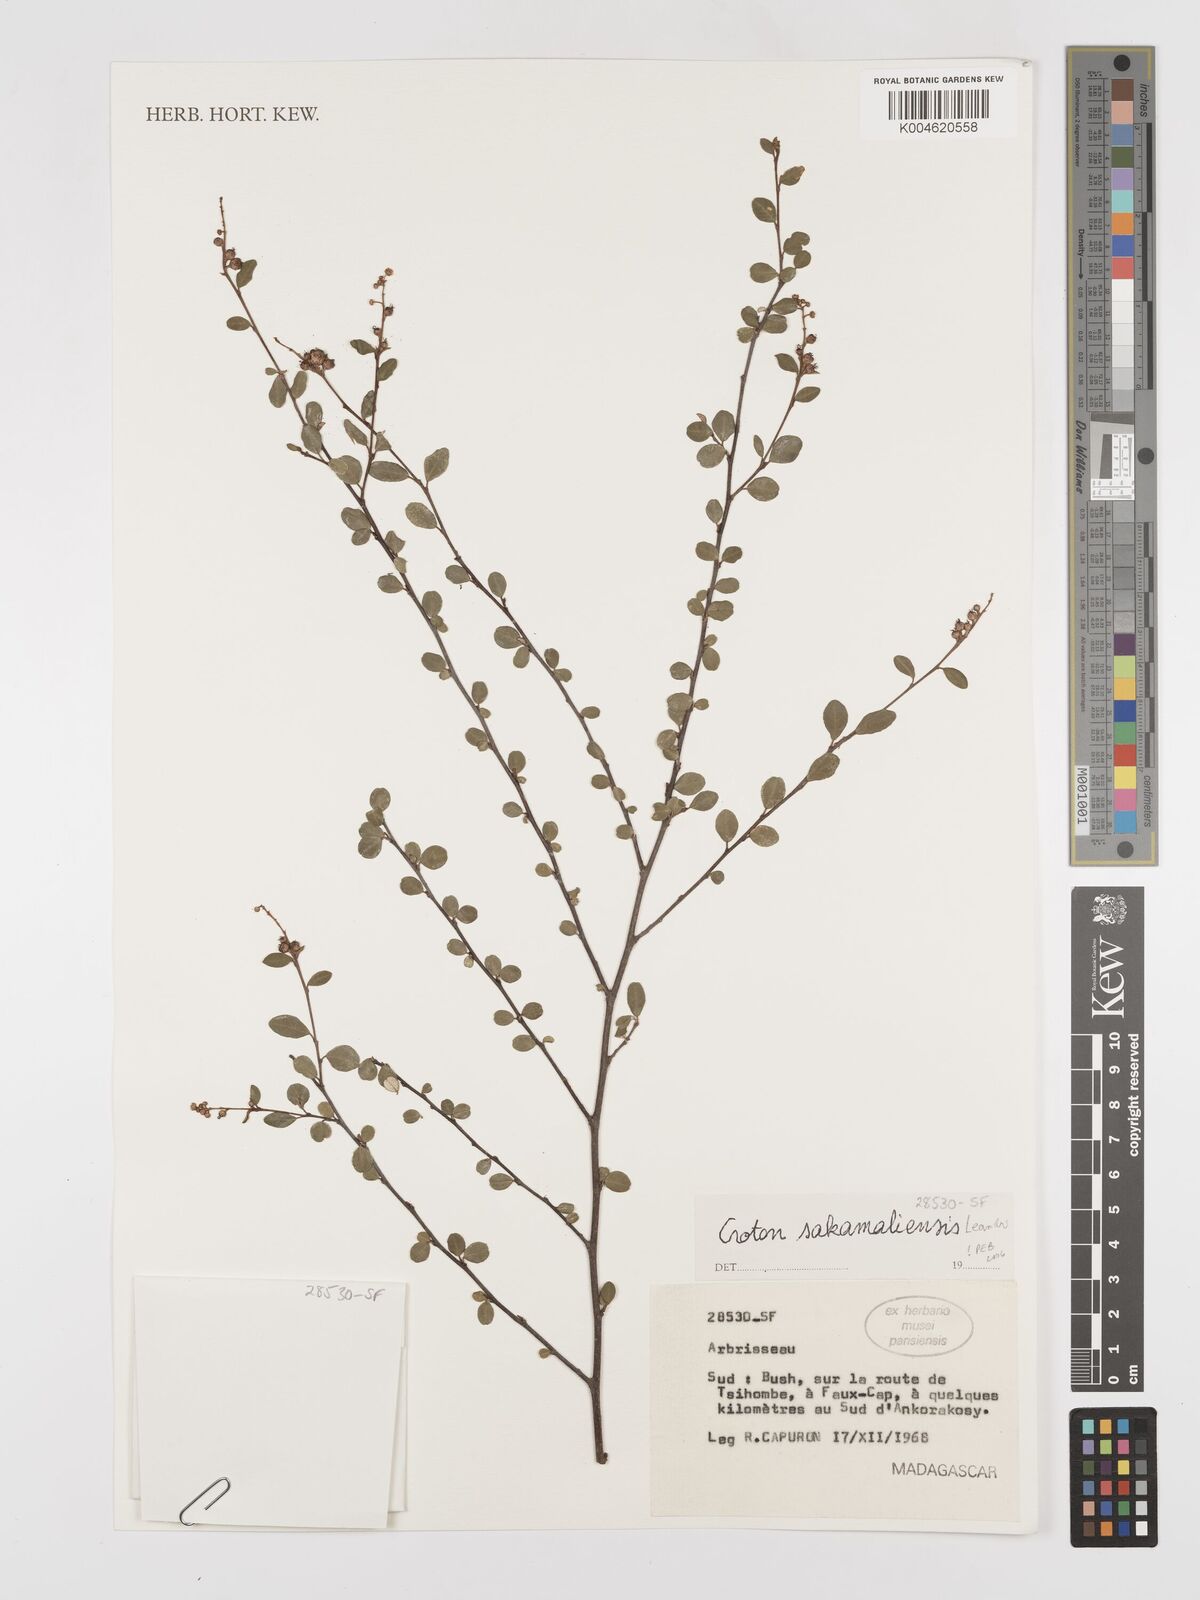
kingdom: Plantae
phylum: Tracheophyta
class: Magnoliopsida
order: Malpighiales
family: Euphorbiaceae
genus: Croton
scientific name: Croton sakamaliensis
